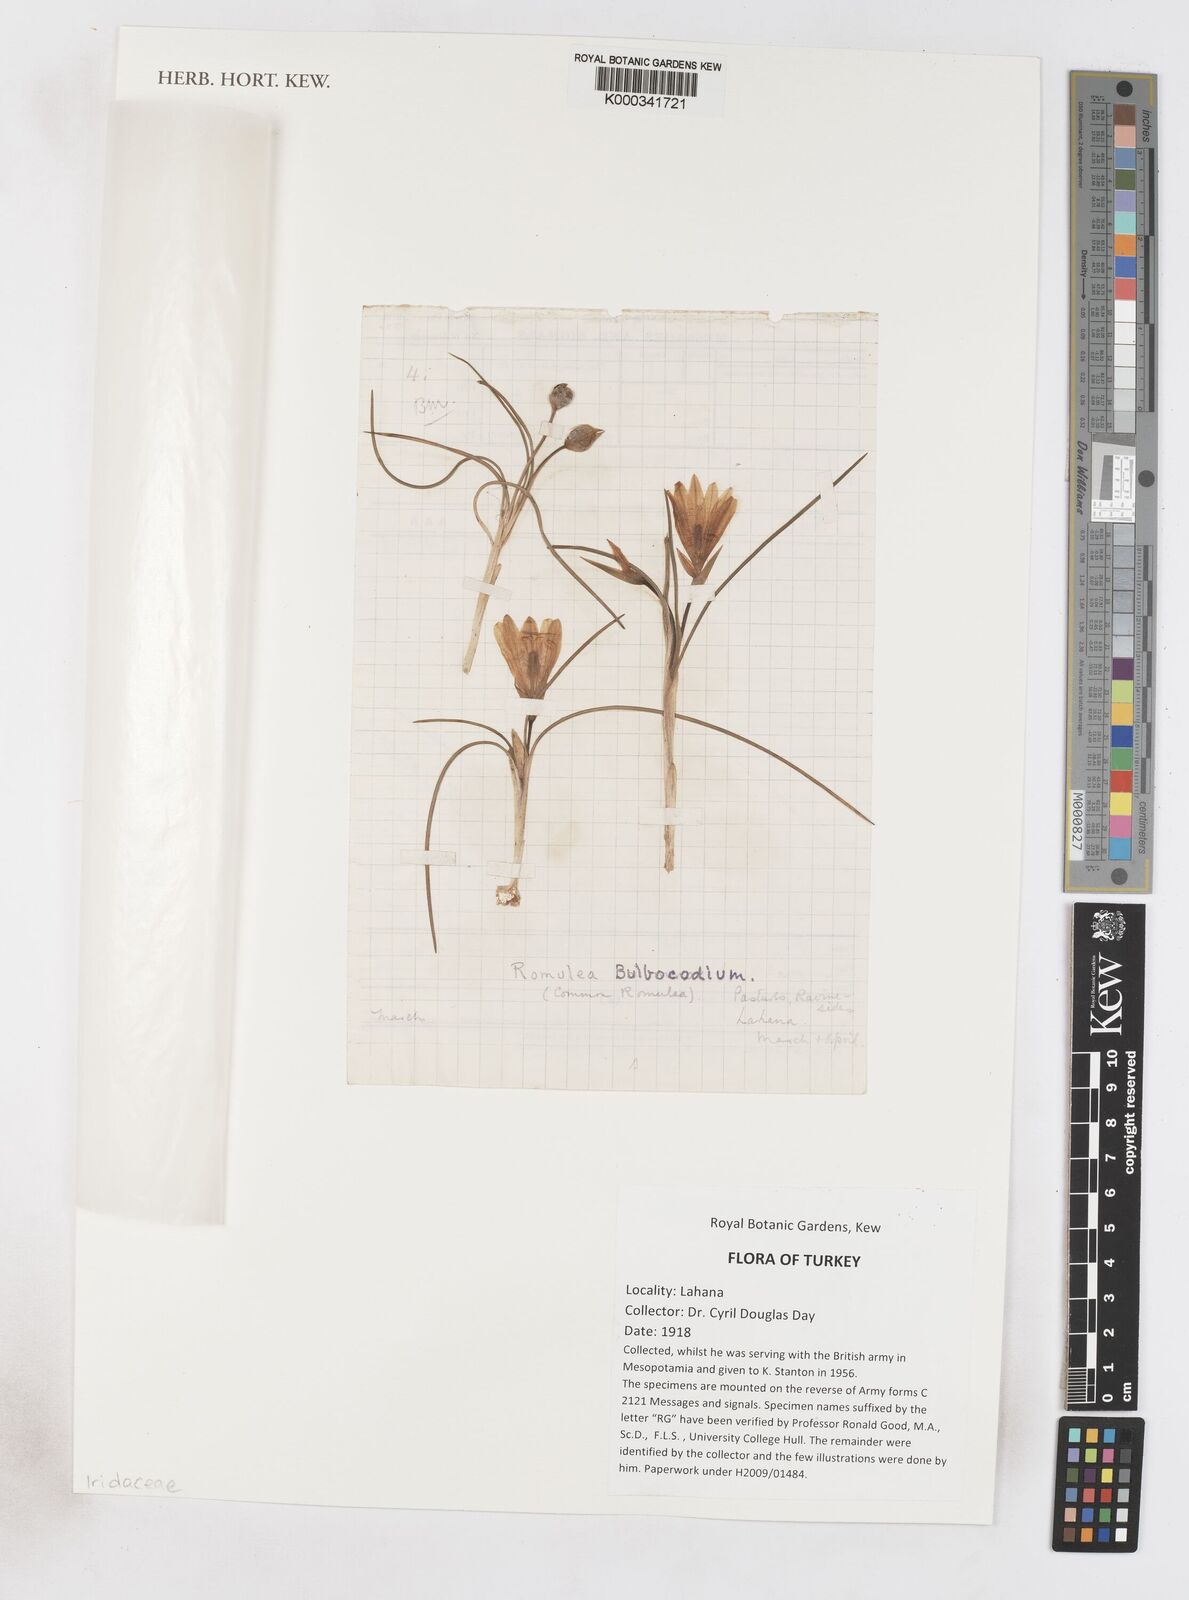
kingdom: Plantae
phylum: Tracheophyta
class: Liliopsida
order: Asparagales
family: Iridaceae
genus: Romulea
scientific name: Romulea bulbocodium
